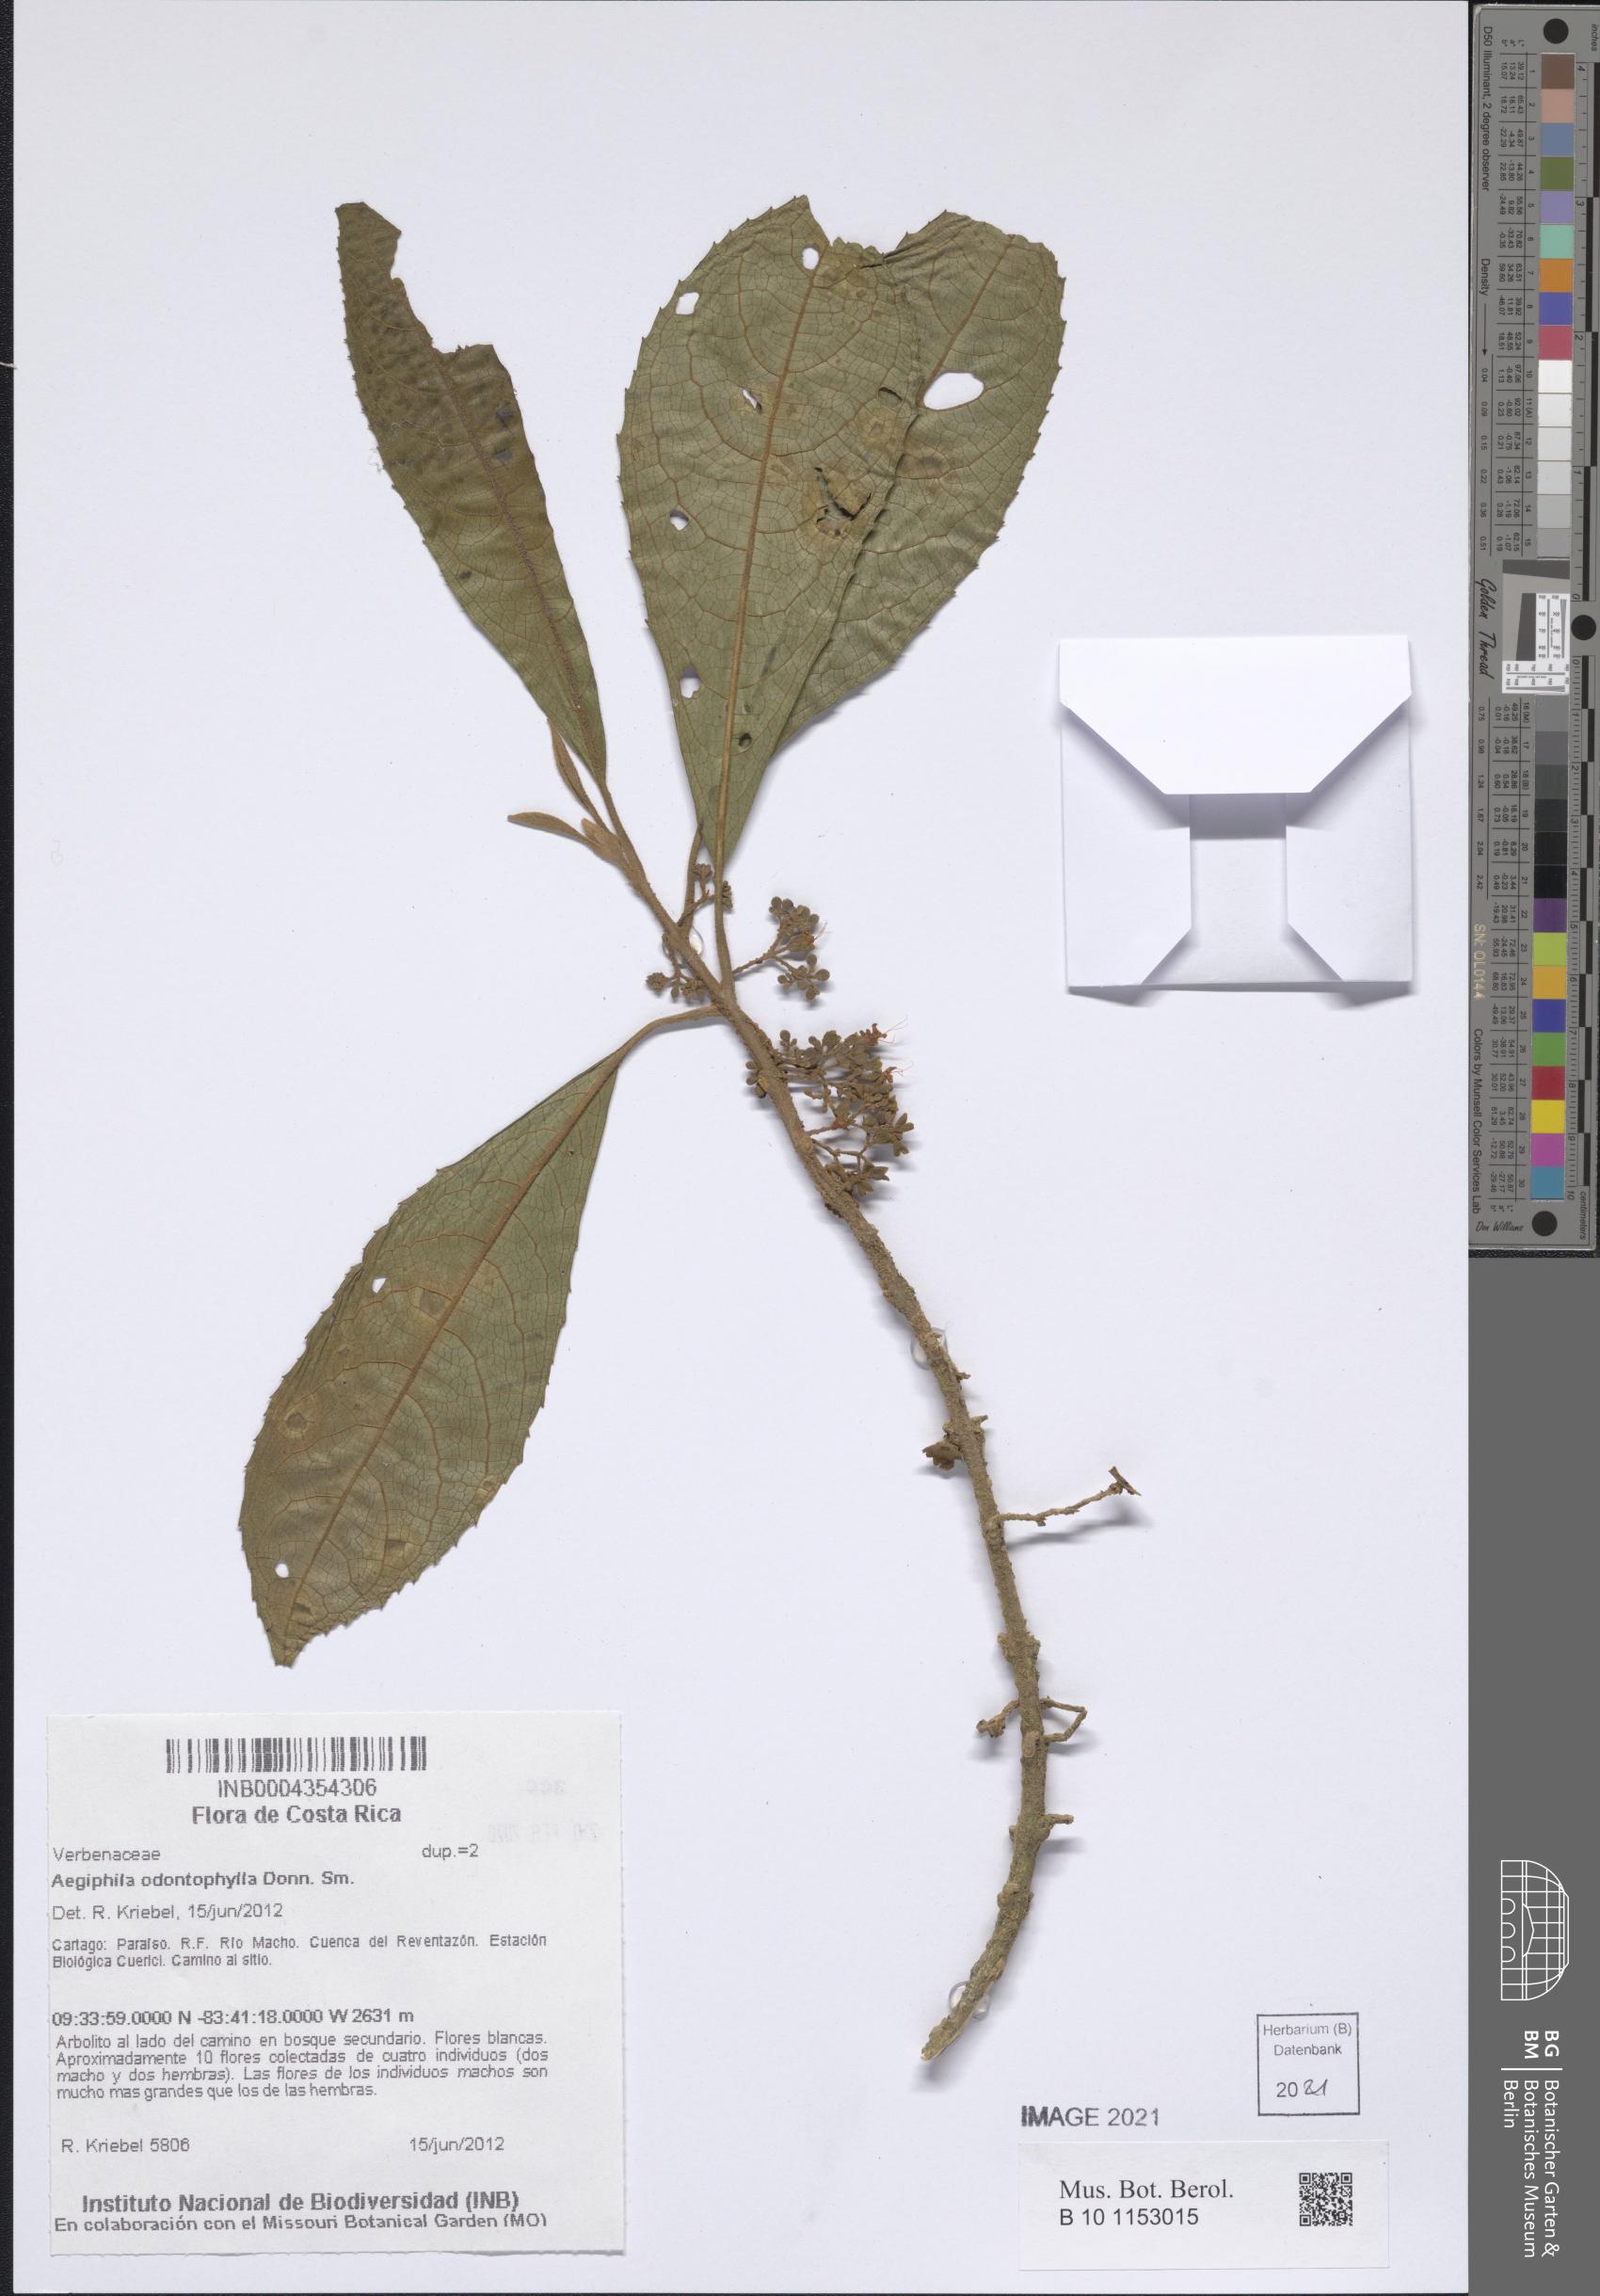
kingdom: Plantae
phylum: Tracheophyta
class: Magnoliopsida
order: Lamiales
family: Lamiaceae
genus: Aegiphila
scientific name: Aegiphila odontophylla
